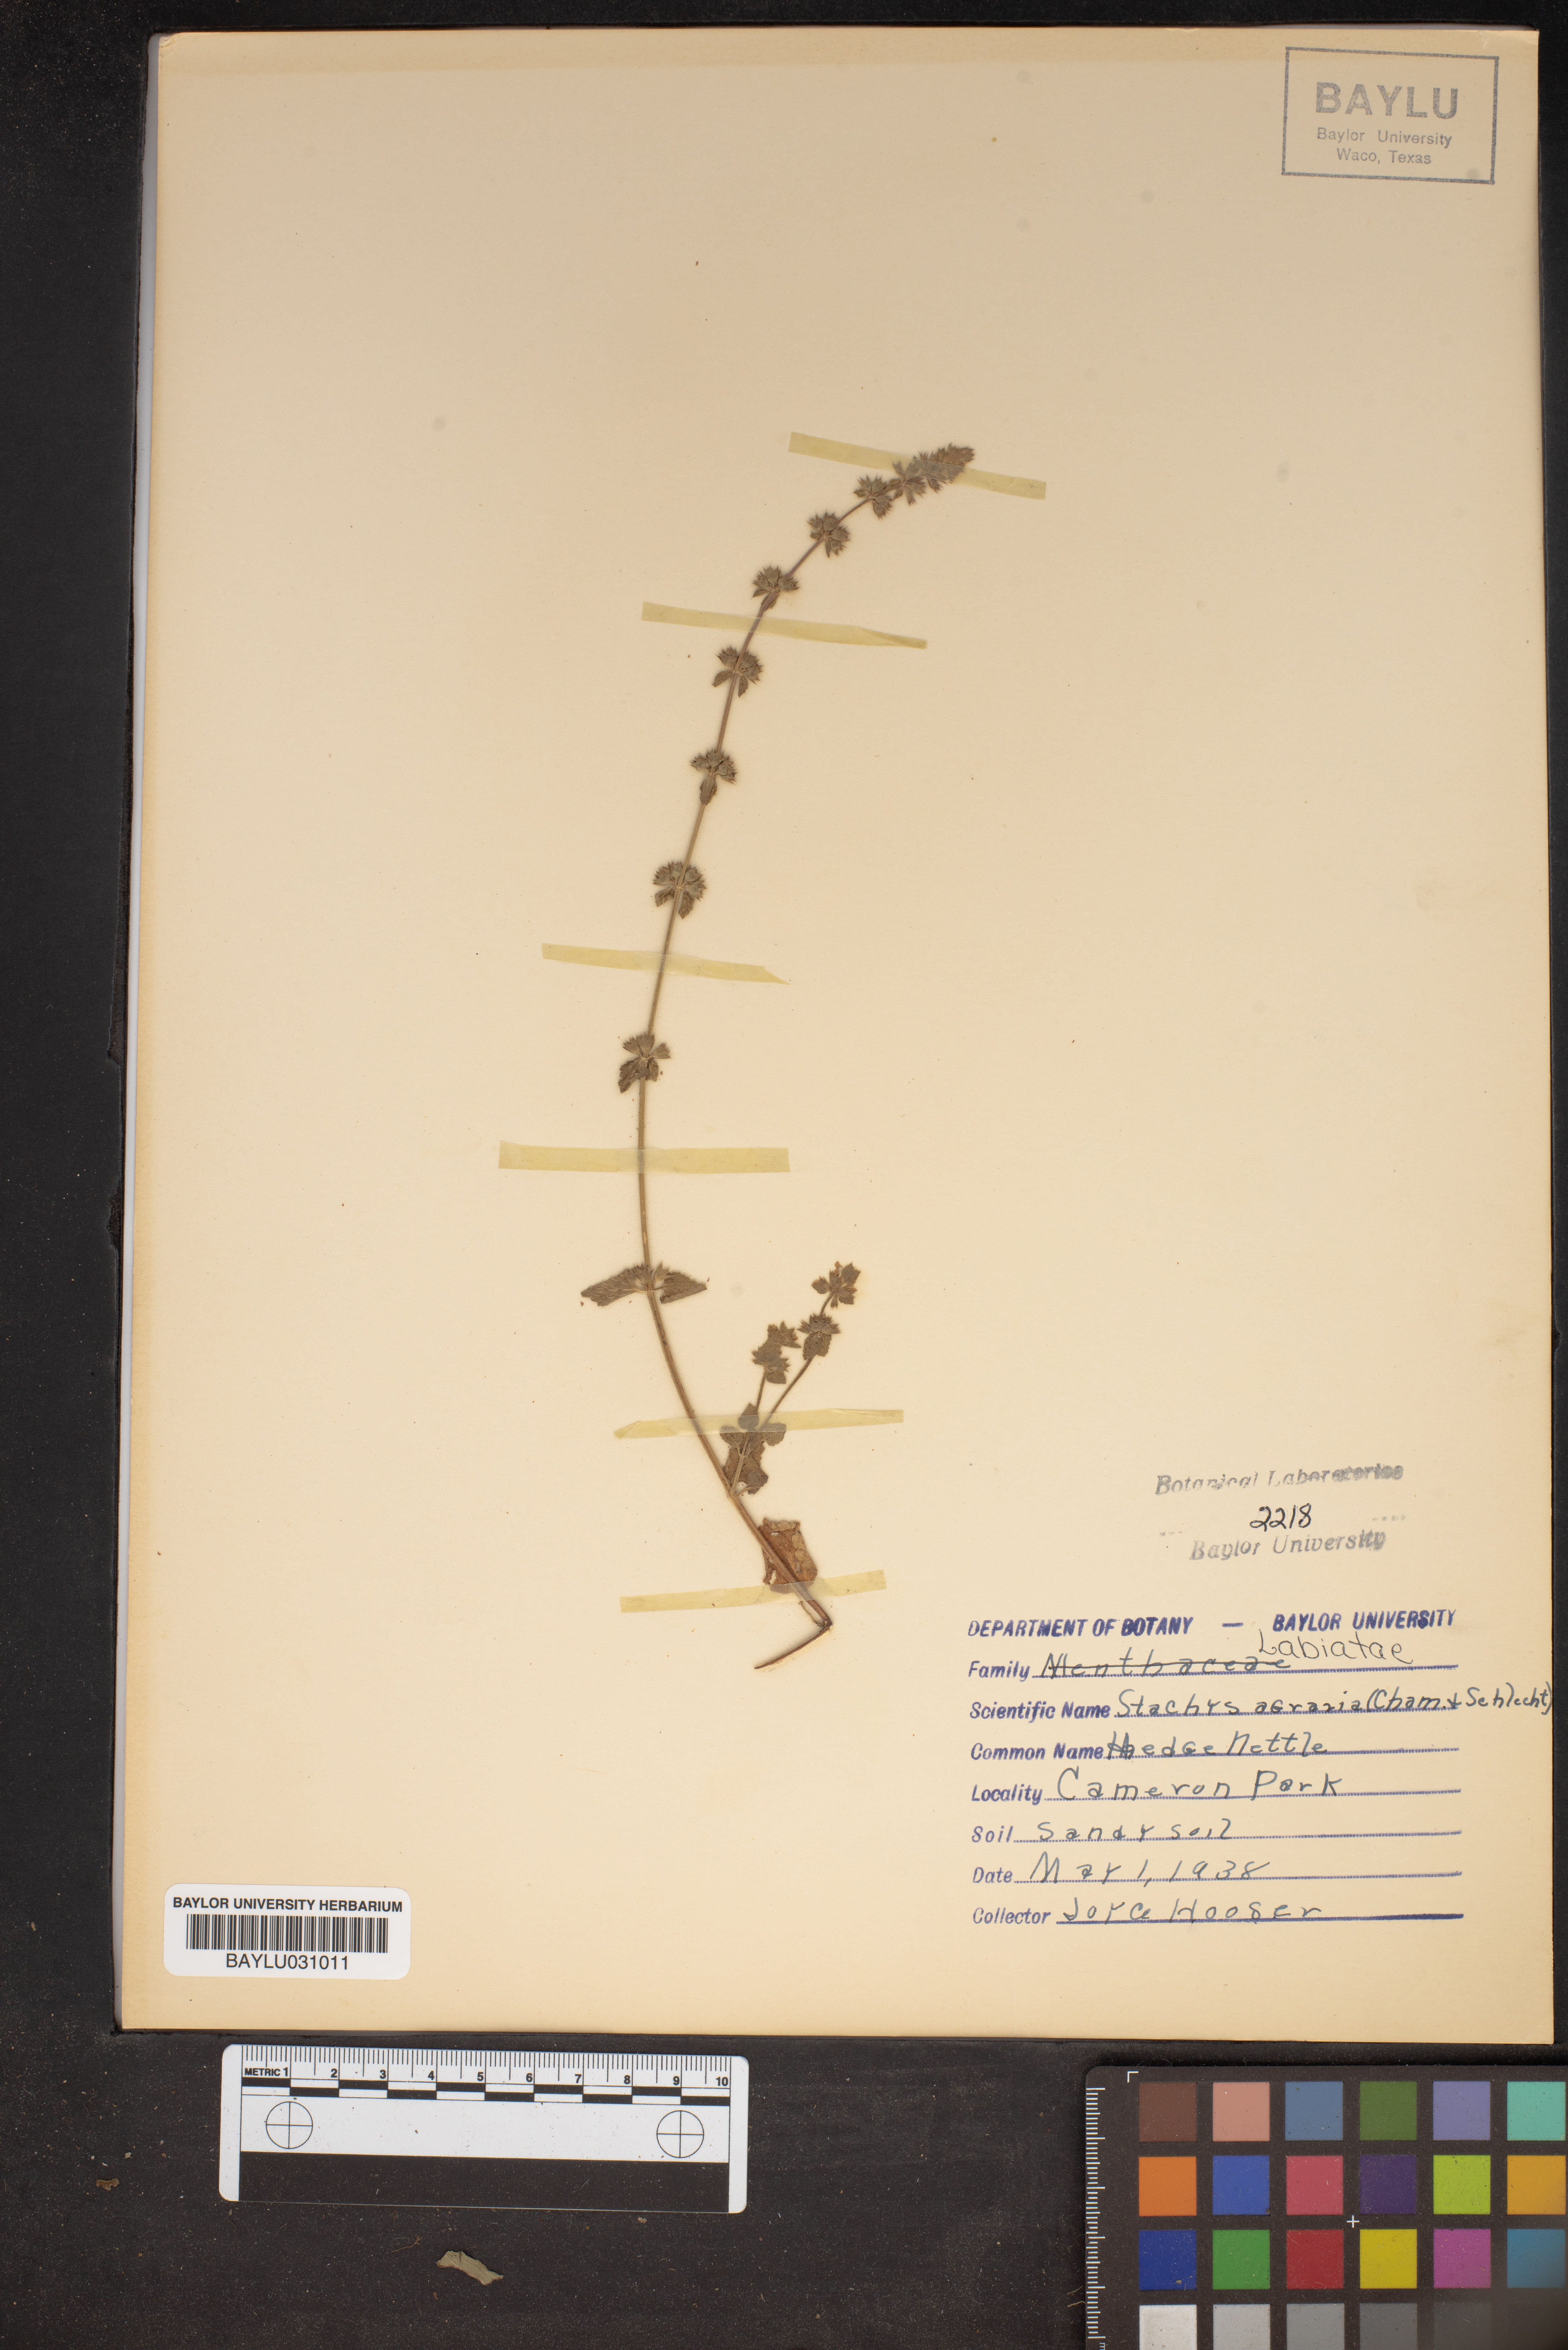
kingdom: Plantae
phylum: Tracheophyta
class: Magnoliopsida
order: Lamiales
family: Lamiaceae
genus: Stachys
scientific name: Stachys agraria
